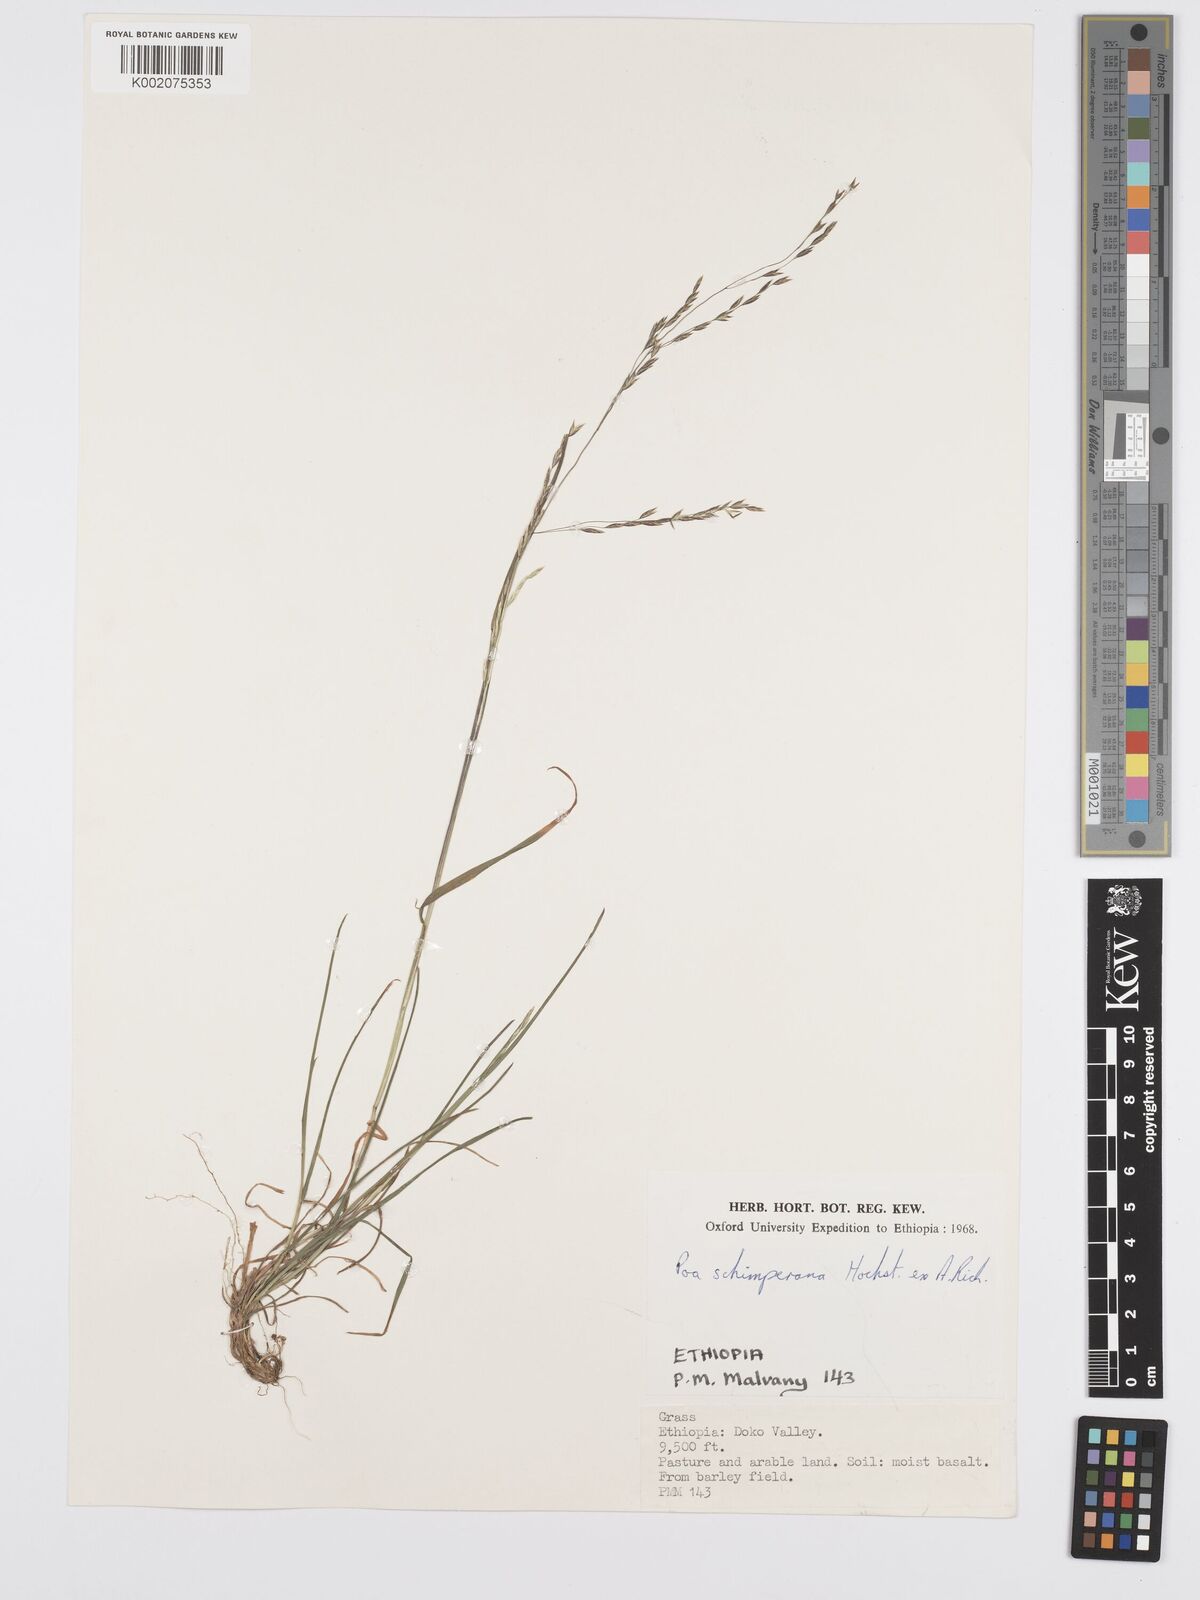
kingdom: Plantae
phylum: Tracheophyta
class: Liliopsida
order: Poales
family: Poaceae
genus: Poa
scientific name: Poa schimperiana
